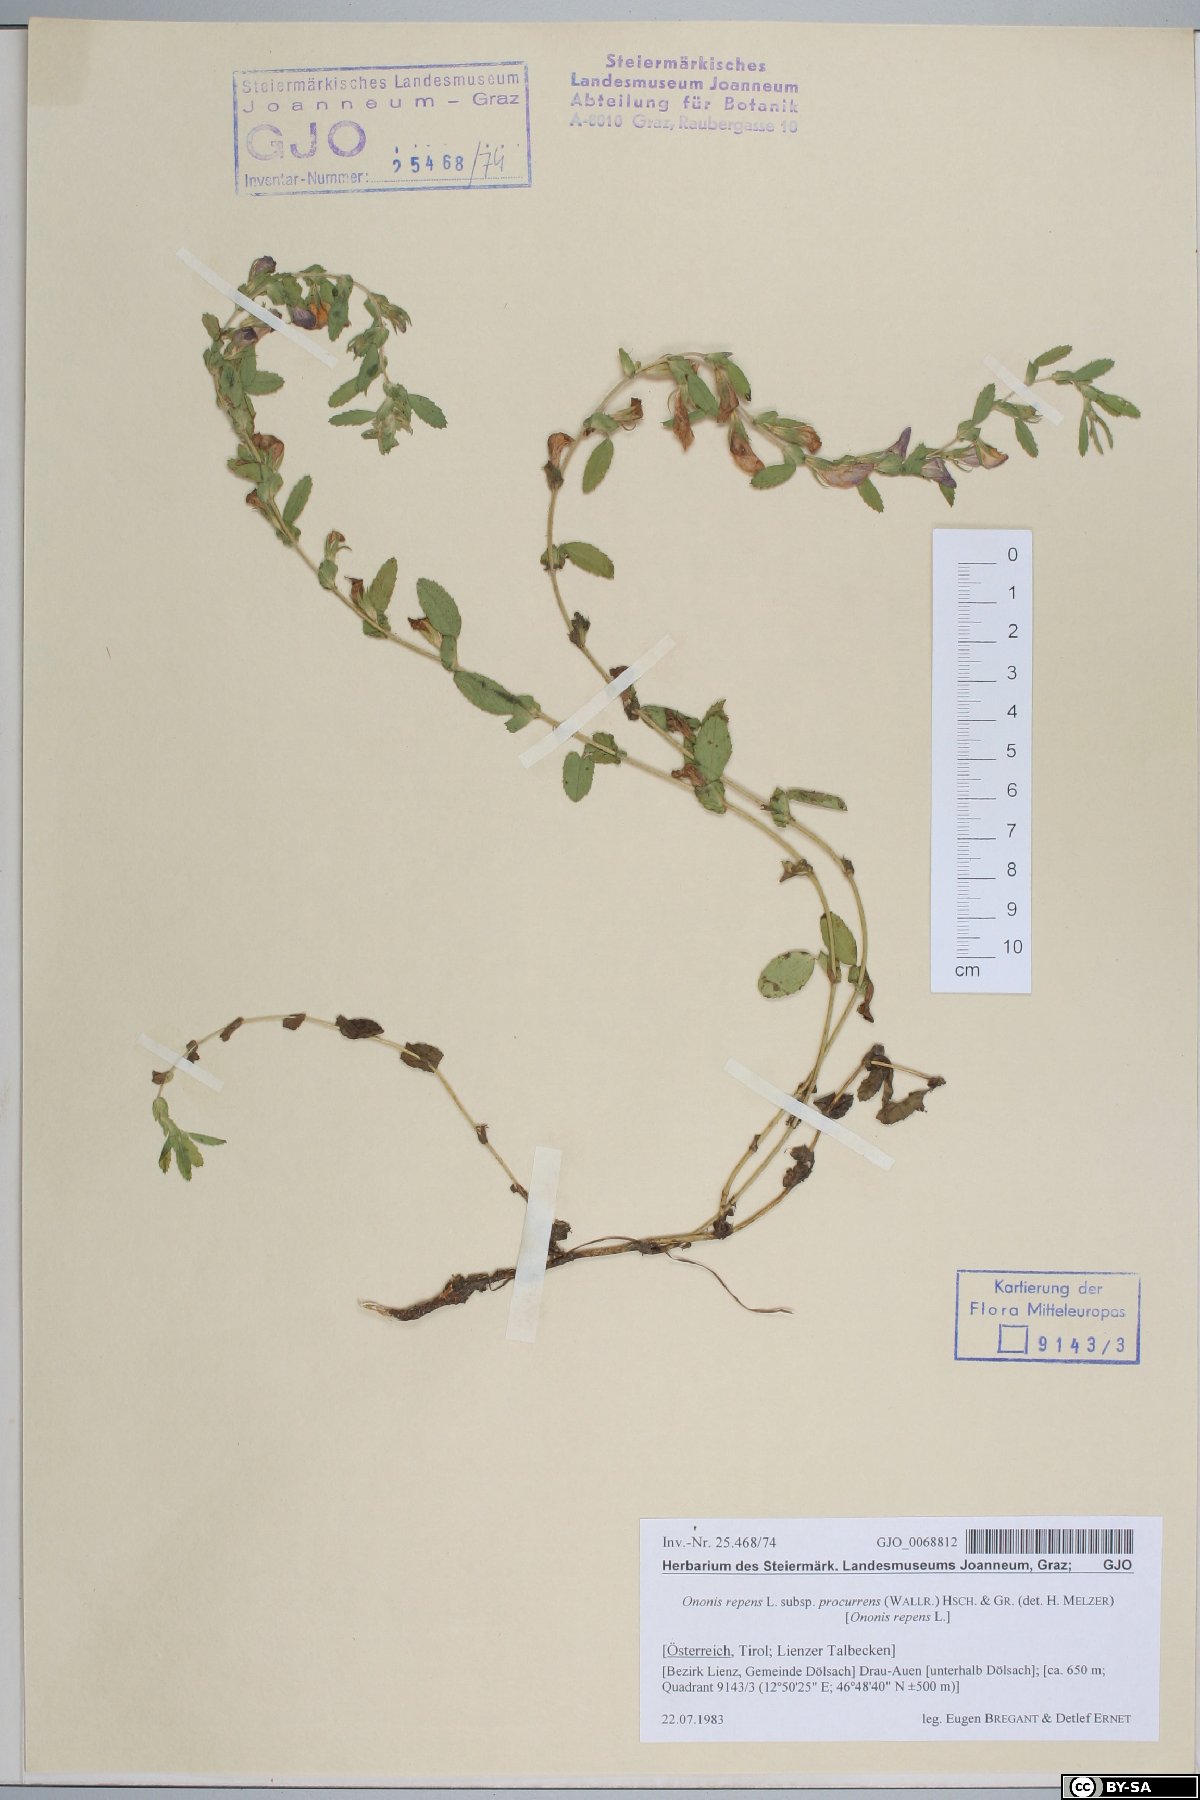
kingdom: Plantae
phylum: Tracheophyta
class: Magnoliopsida
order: Fabales
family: Fabaceae
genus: Ononis
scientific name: Ononis spinosa
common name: Spiny restharrow
